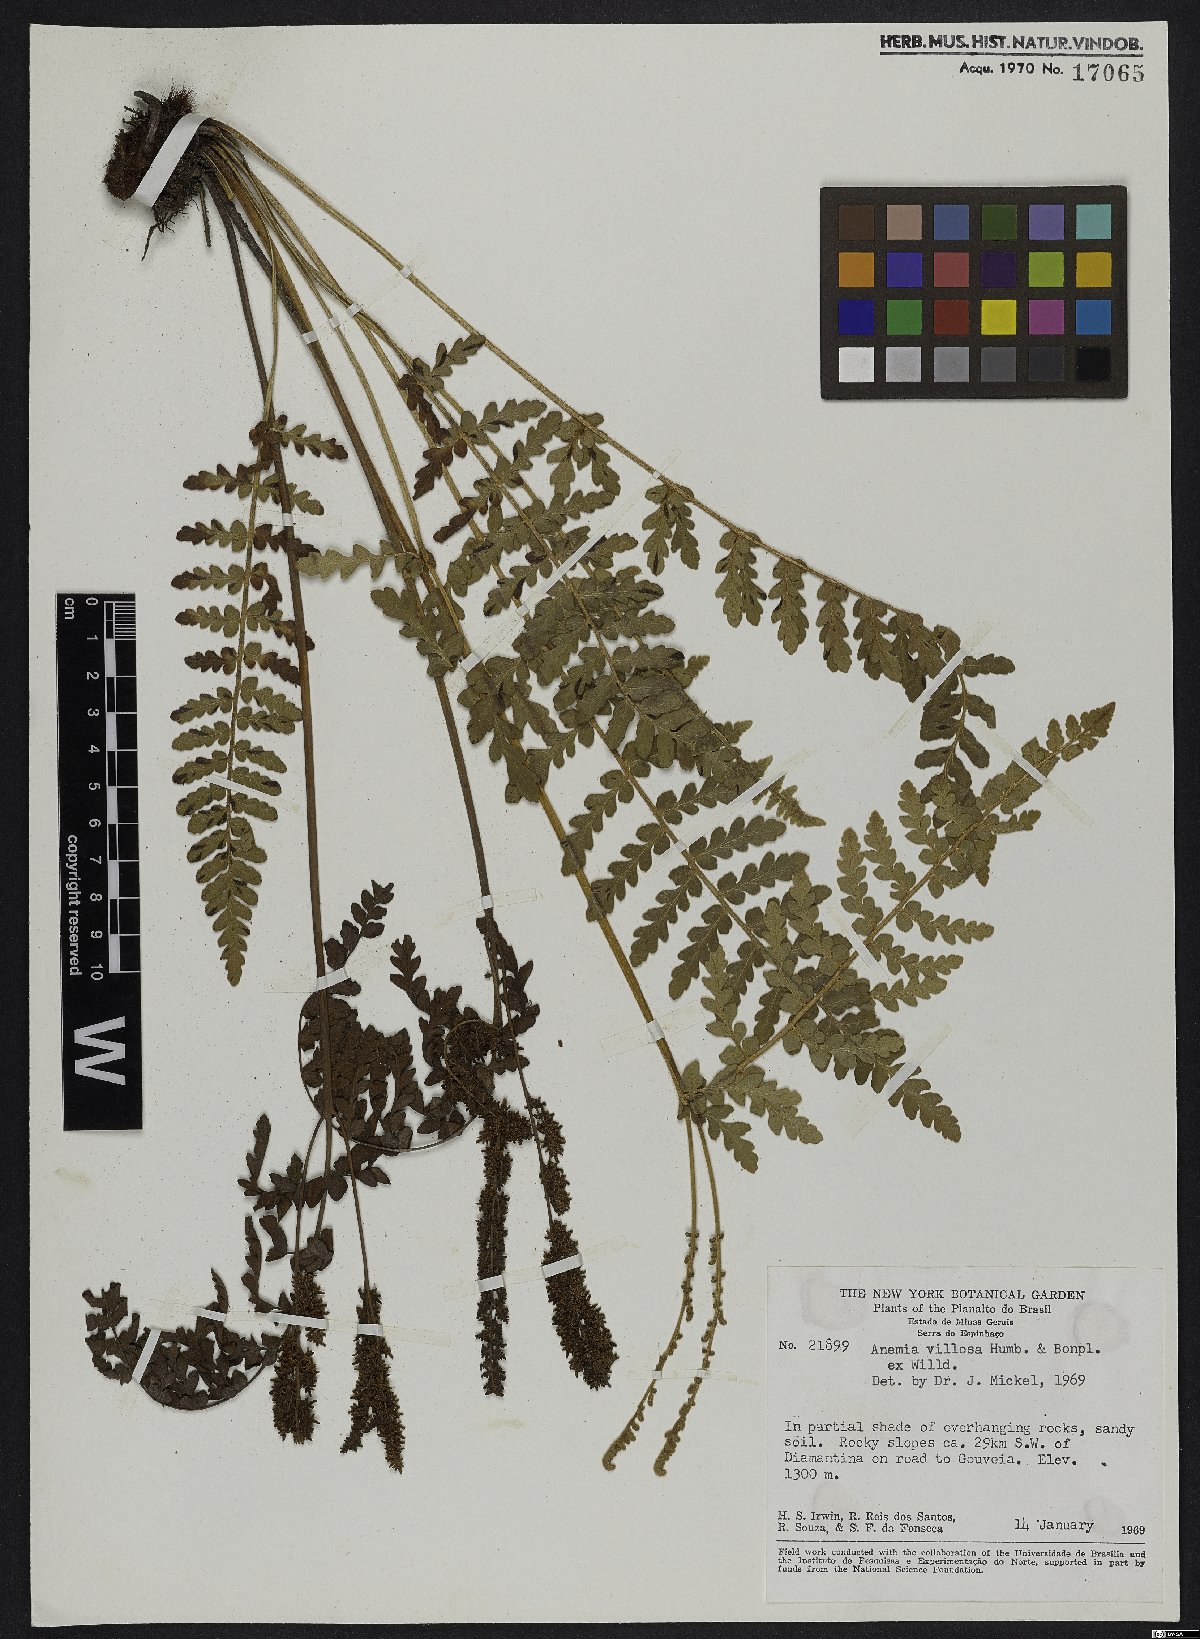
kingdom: Plantae
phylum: Tracheophyta
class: Polypodiopsida
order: Schizaeales
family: Anemiaceae
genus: Anemia
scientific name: Anemia villosa
